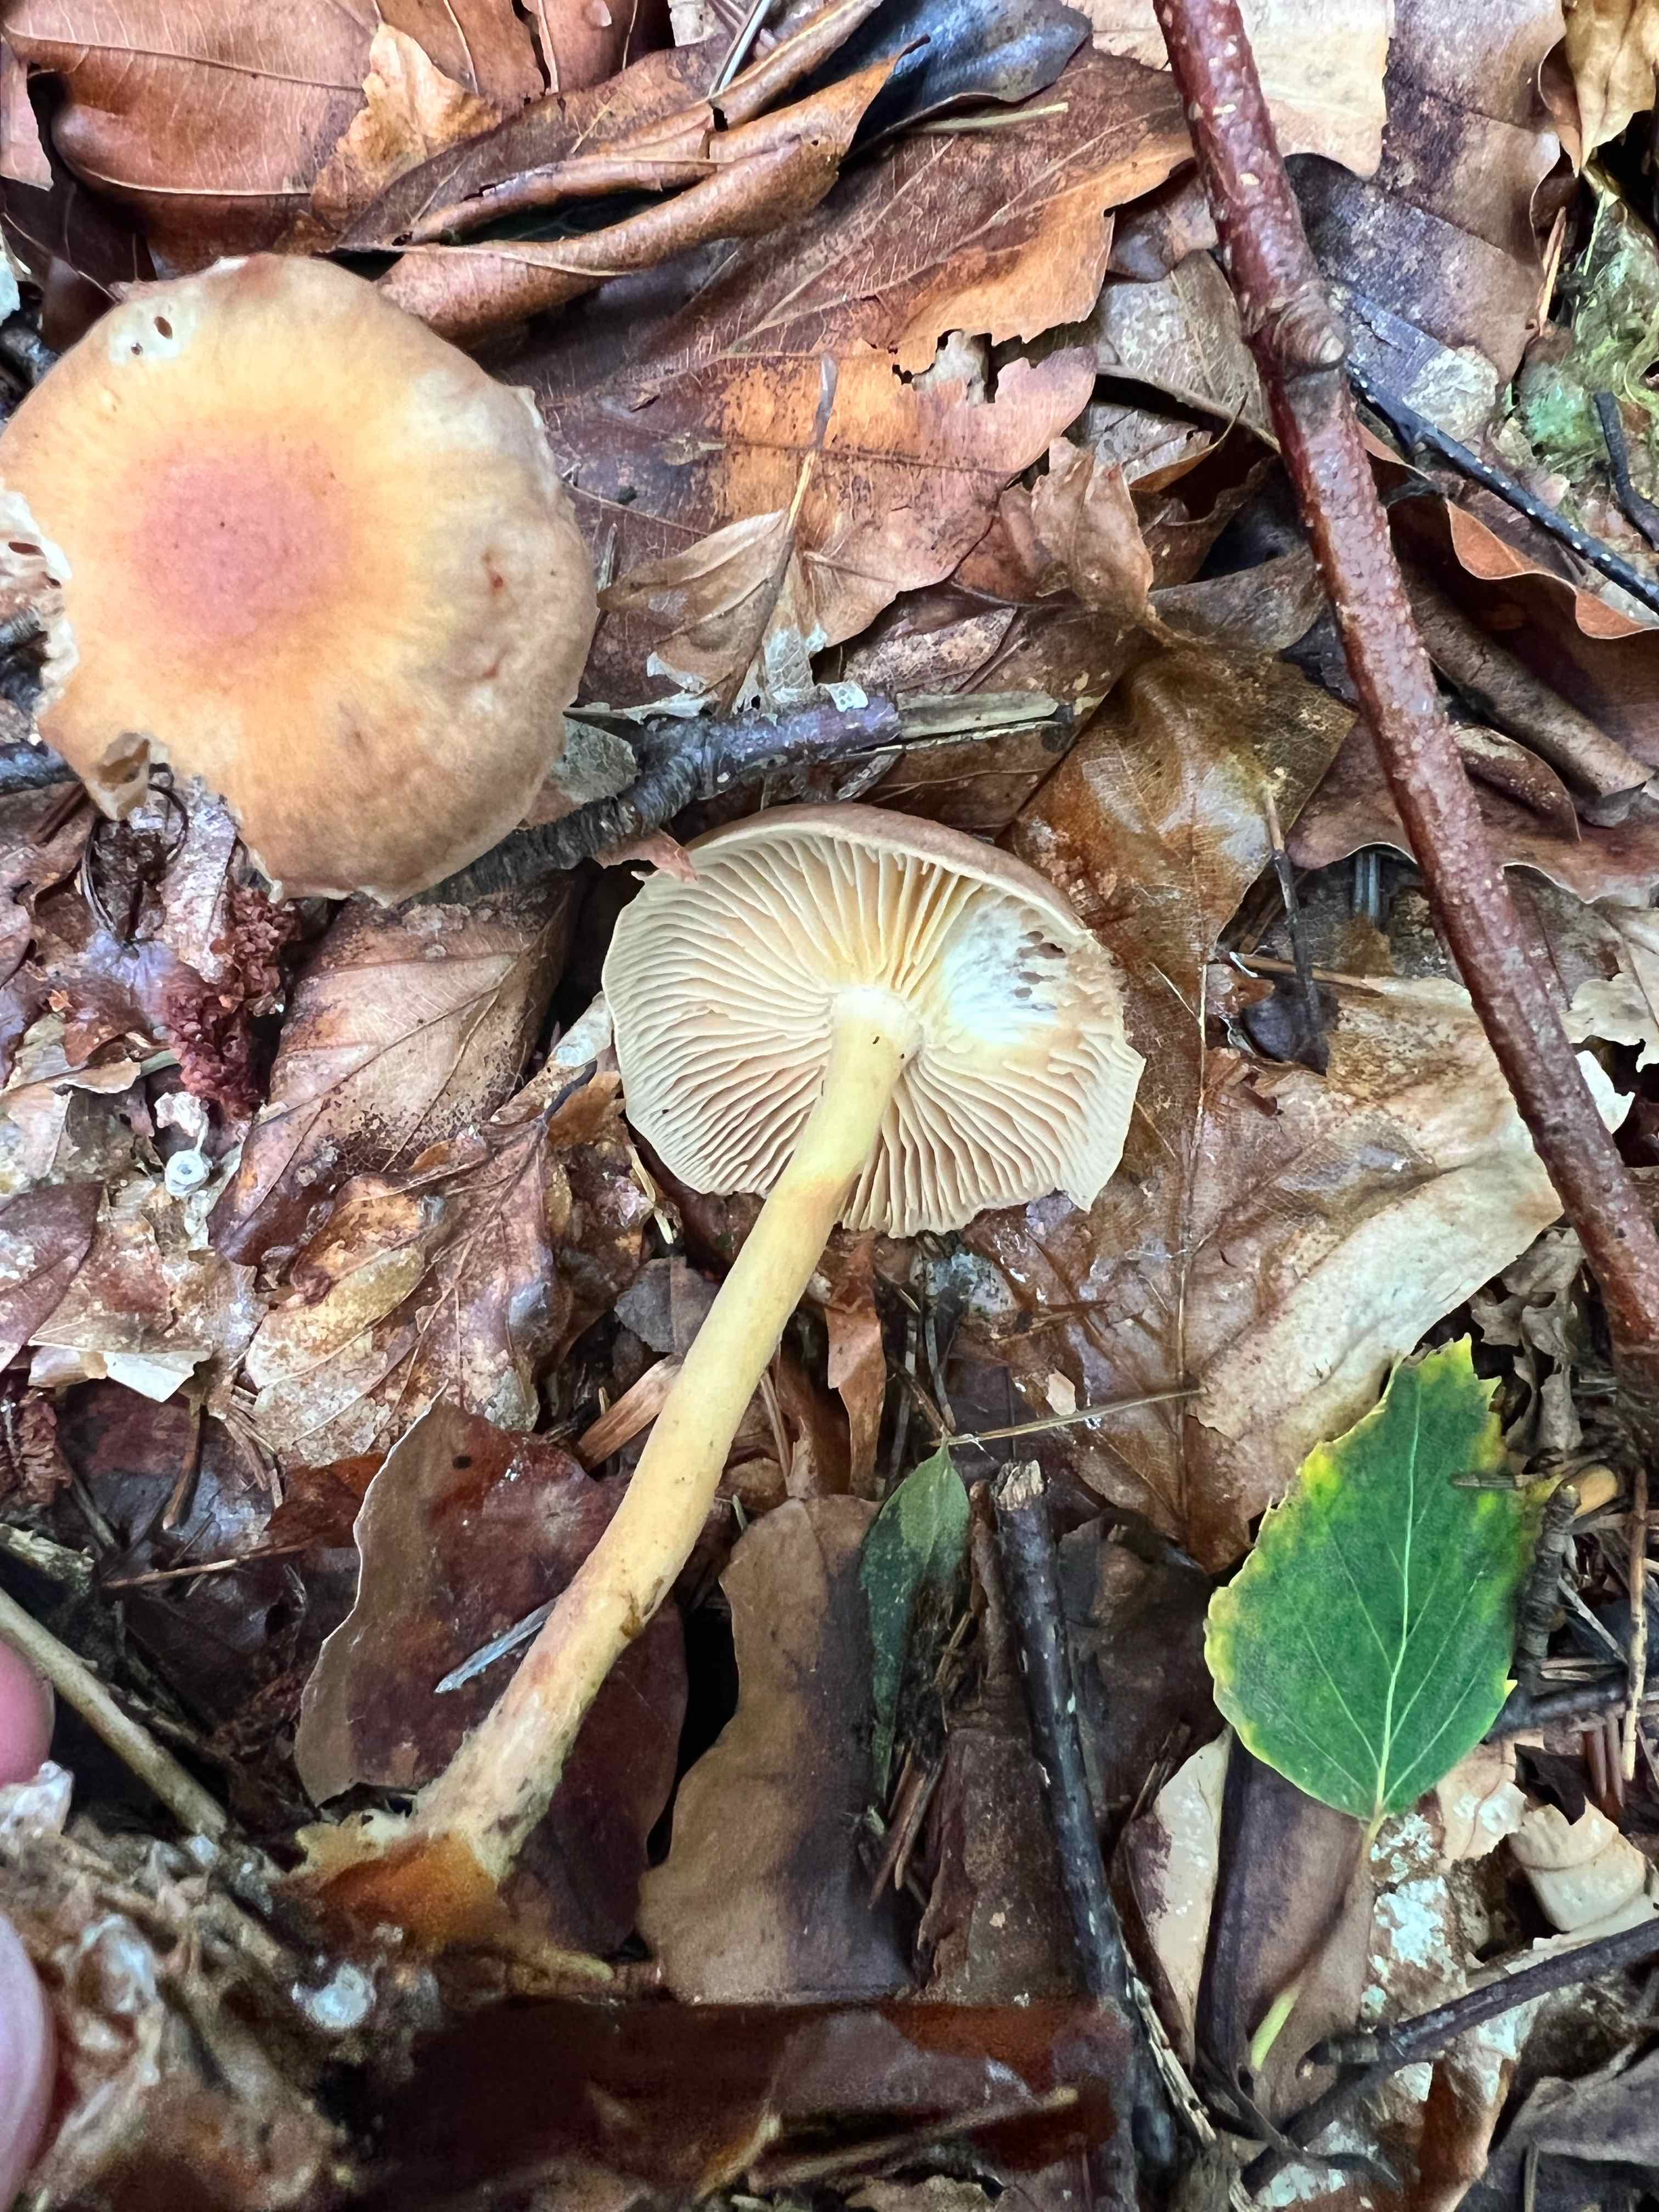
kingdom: Fungi
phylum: Basidiomycota
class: Agaricomycetes
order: Agaricales
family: Omphalotaceae
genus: Collybiopsis
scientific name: Collybiopsis peronata
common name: bestøvlet fladhat
